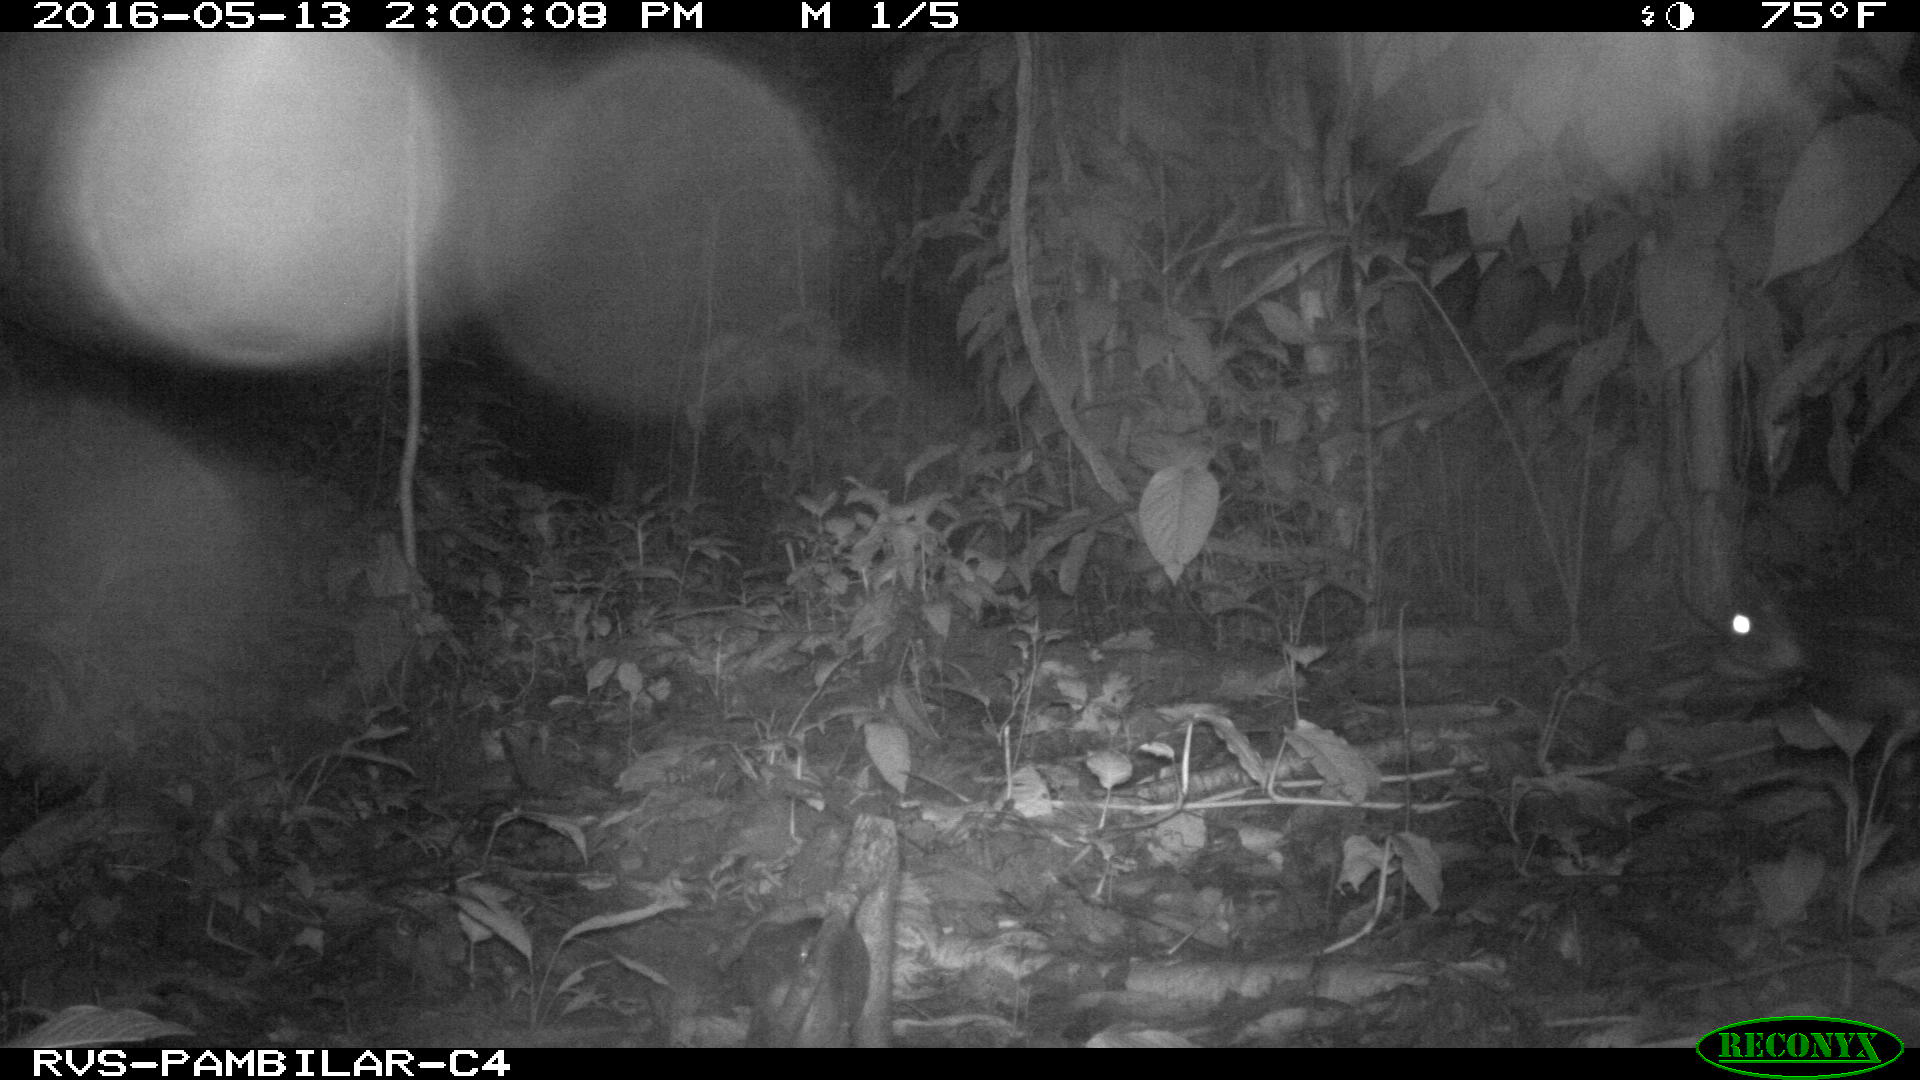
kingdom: Animalia
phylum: Chordata
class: Mammalia
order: Rodentia
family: Cuniculidae
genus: Cuniculus
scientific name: Cuniculus paca
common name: Lowland paca
